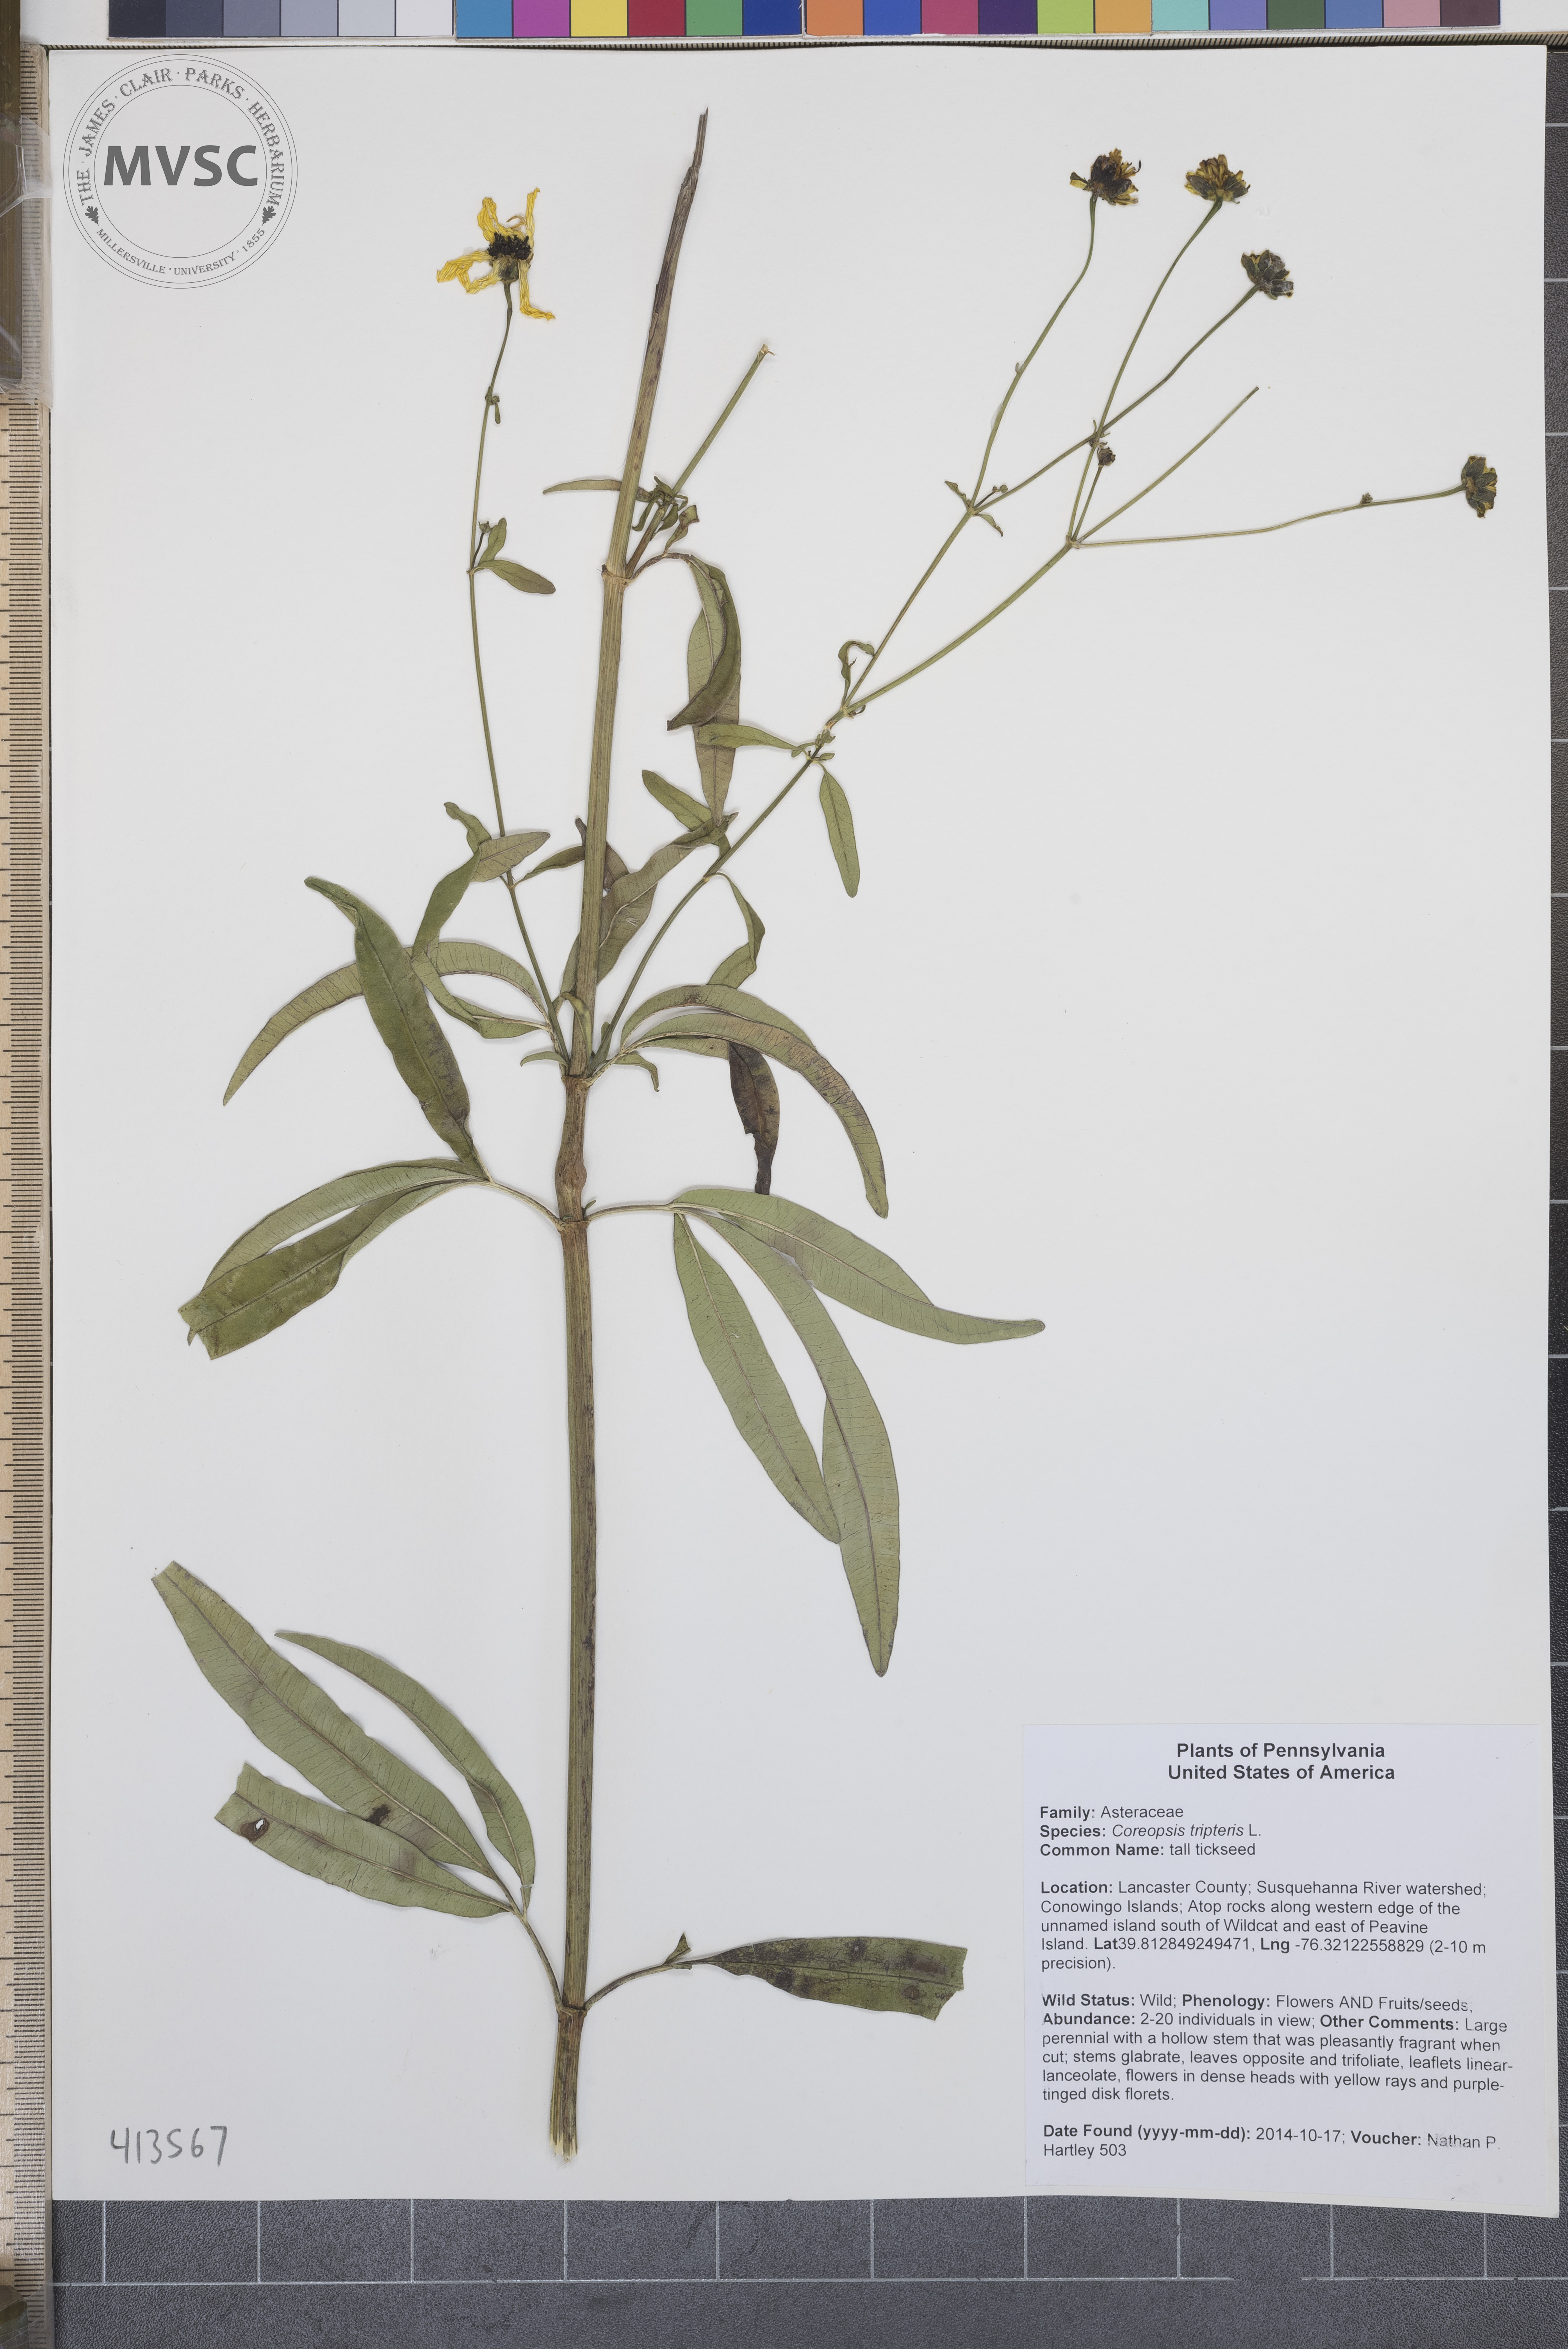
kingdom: Plantae
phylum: Tracheophyta
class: Magnoliopsida
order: Asterales
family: Asteraceae
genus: Coreopsis
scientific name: Coreopsis tripteris
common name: tall tickseed
